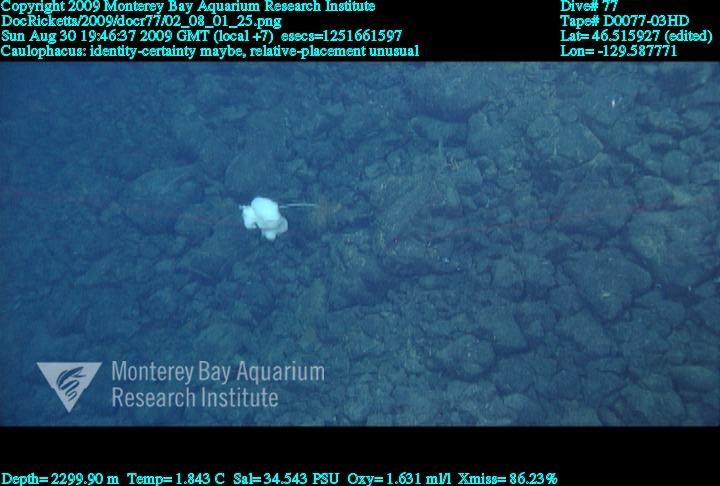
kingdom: Animalia
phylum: Porifera
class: Hexactinellida
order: Lyssacinosida
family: Rossellidae
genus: Caulophacus
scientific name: Caulophacus
